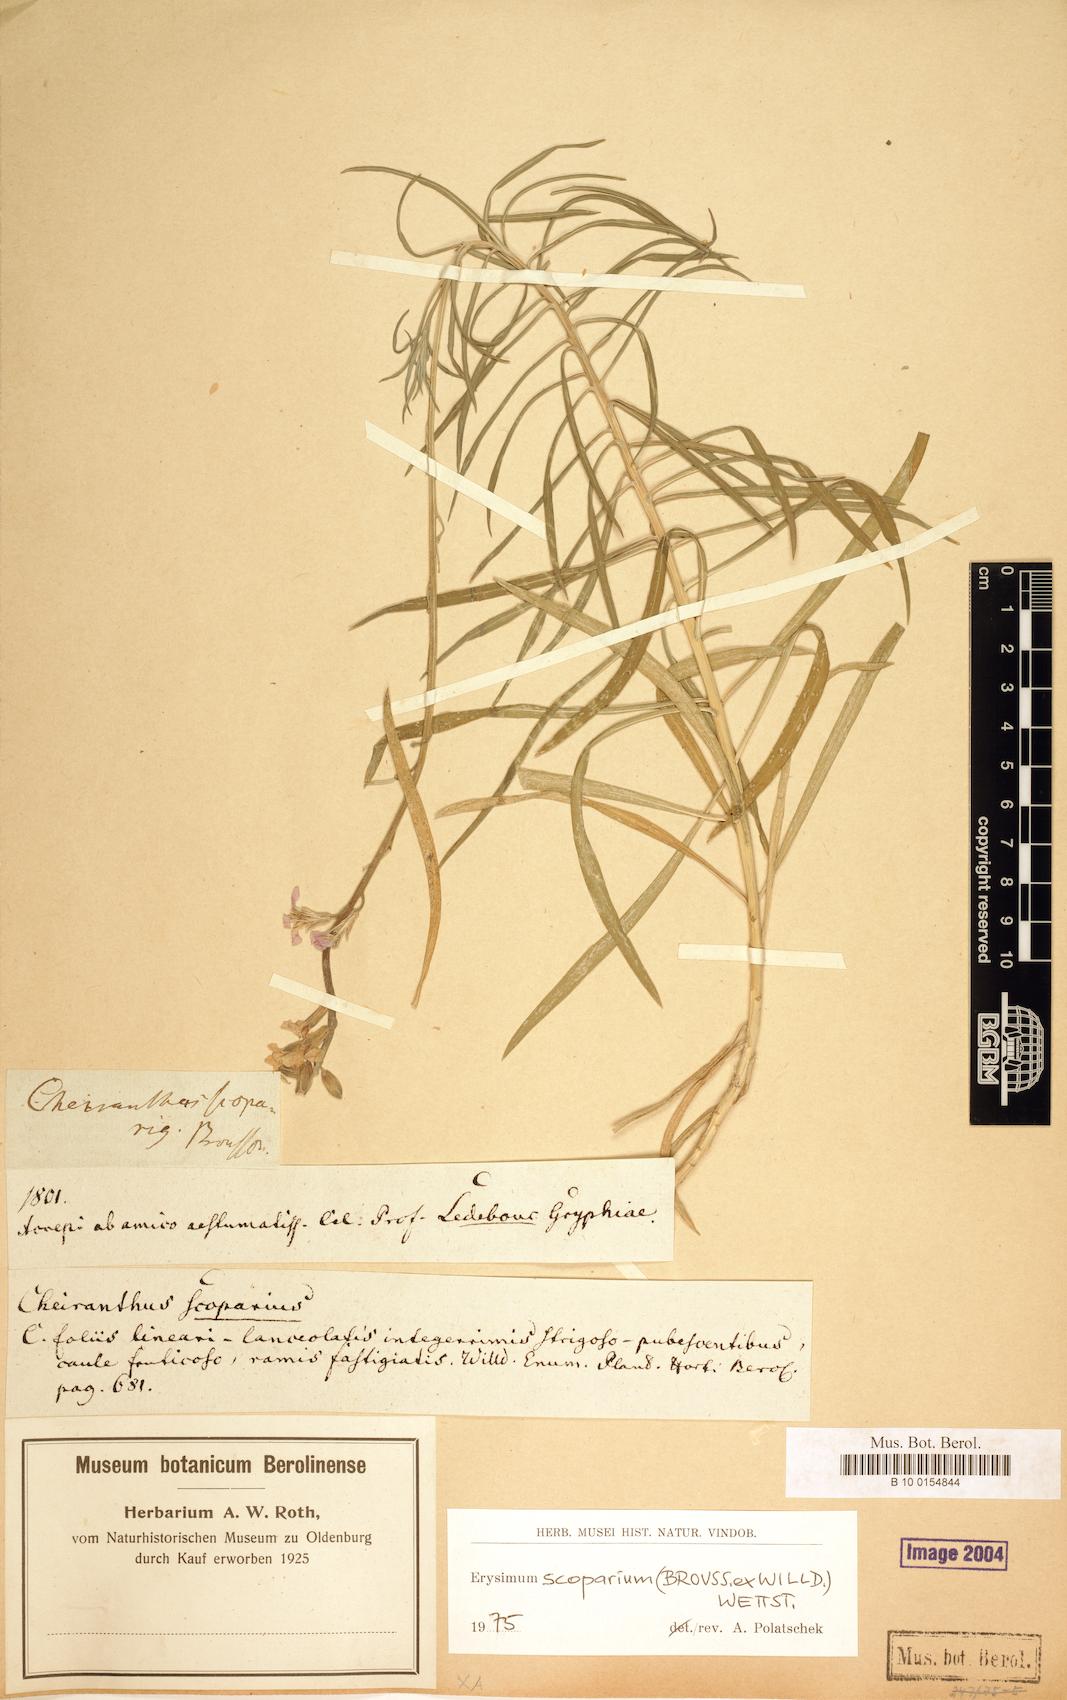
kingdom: Plantae
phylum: Tracheophyta
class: Magnoliopsida
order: Brassicales
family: Brassicaceae
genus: Erysimum
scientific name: Erysimum scoparium
